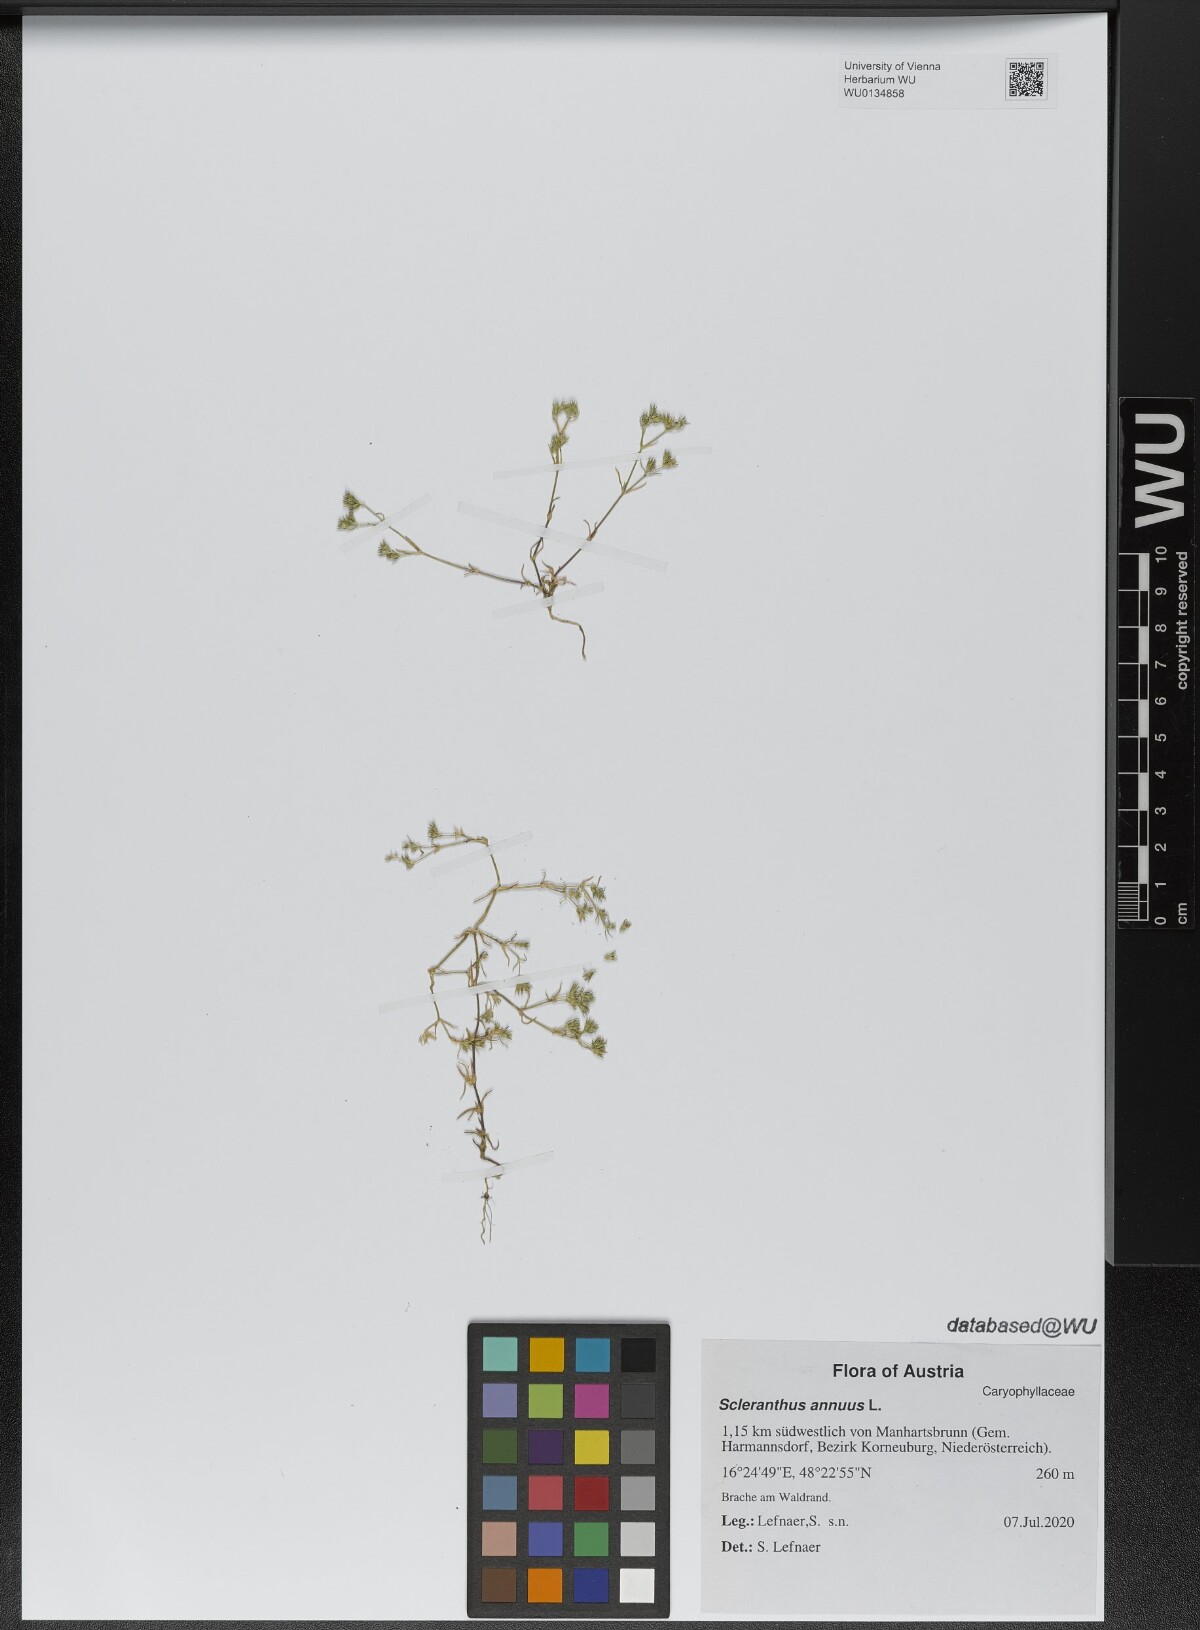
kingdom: Plantae
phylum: Tracheophyta
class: Magnoliopsida
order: Caryophyllales
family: Caryophyllaceae
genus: Scleranthus
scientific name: Scleranthus annuus
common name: Annual knawel
